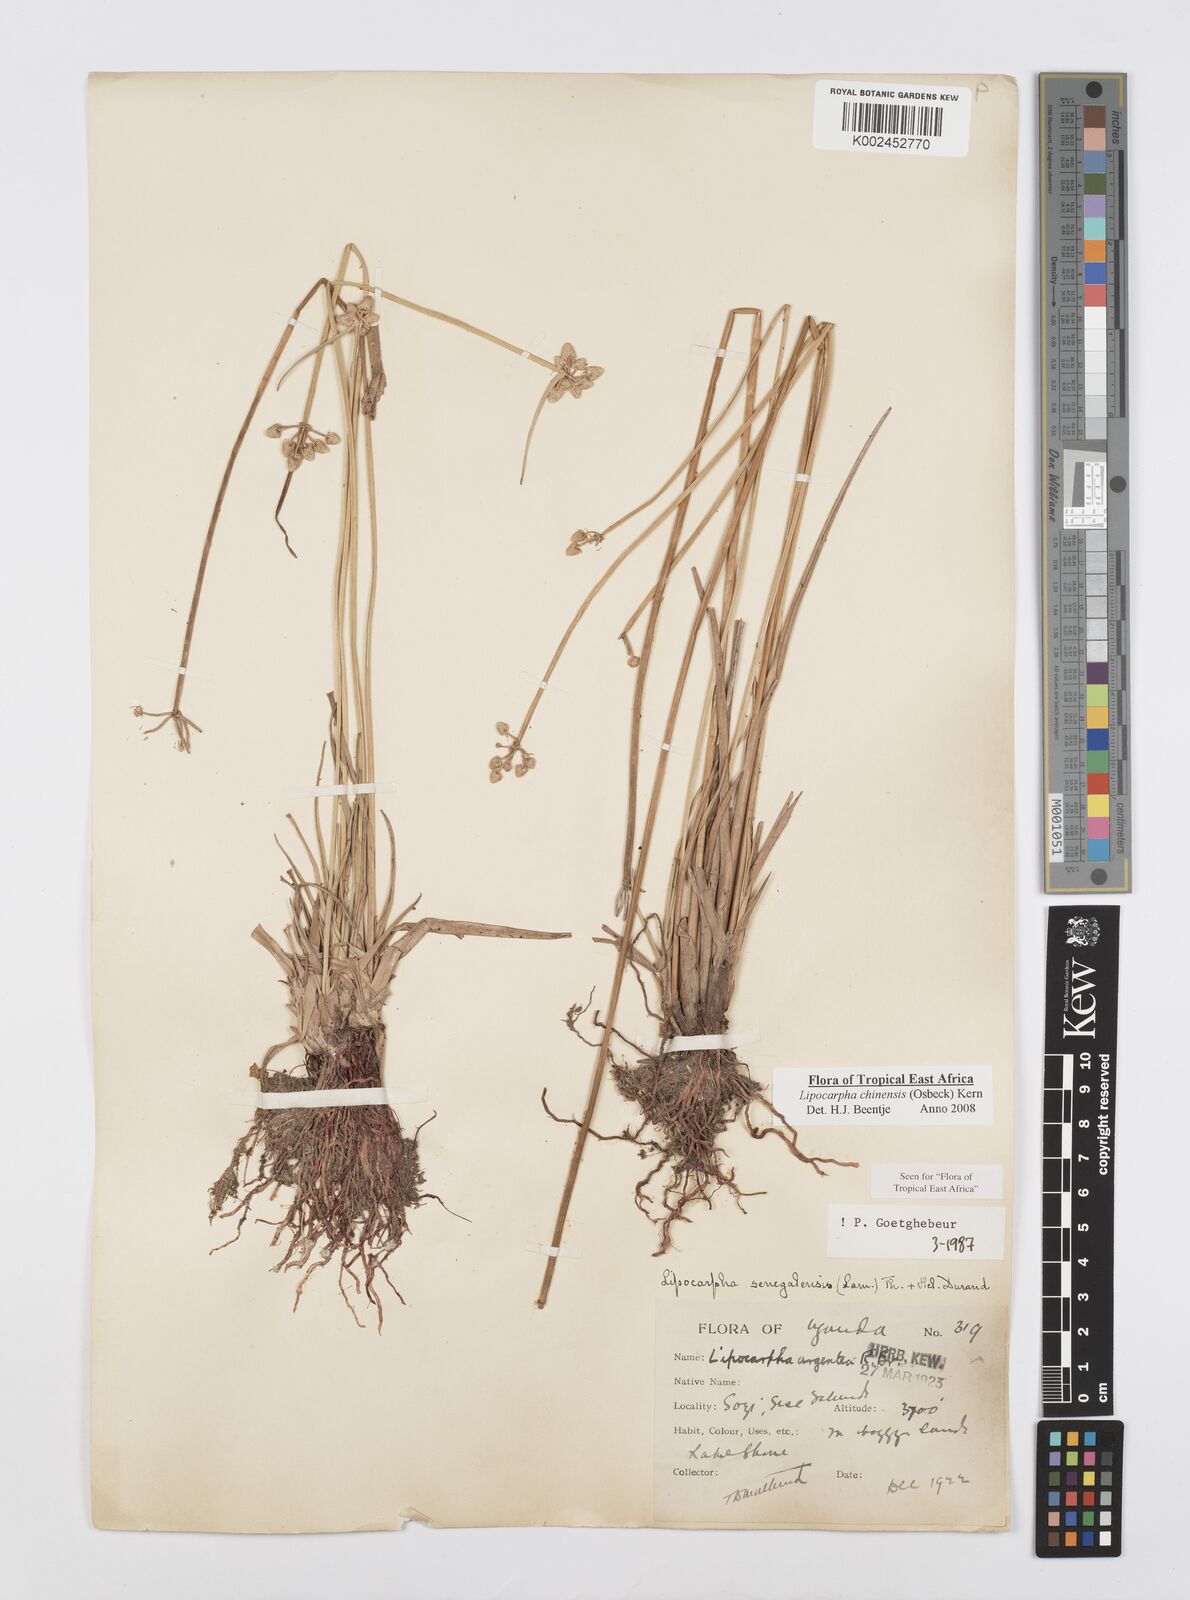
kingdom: Plantae
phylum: Tracheophyta
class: Liliopsida
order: Poales
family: Cyperaceae
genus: Cyperus
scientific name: Cyperus albescens
